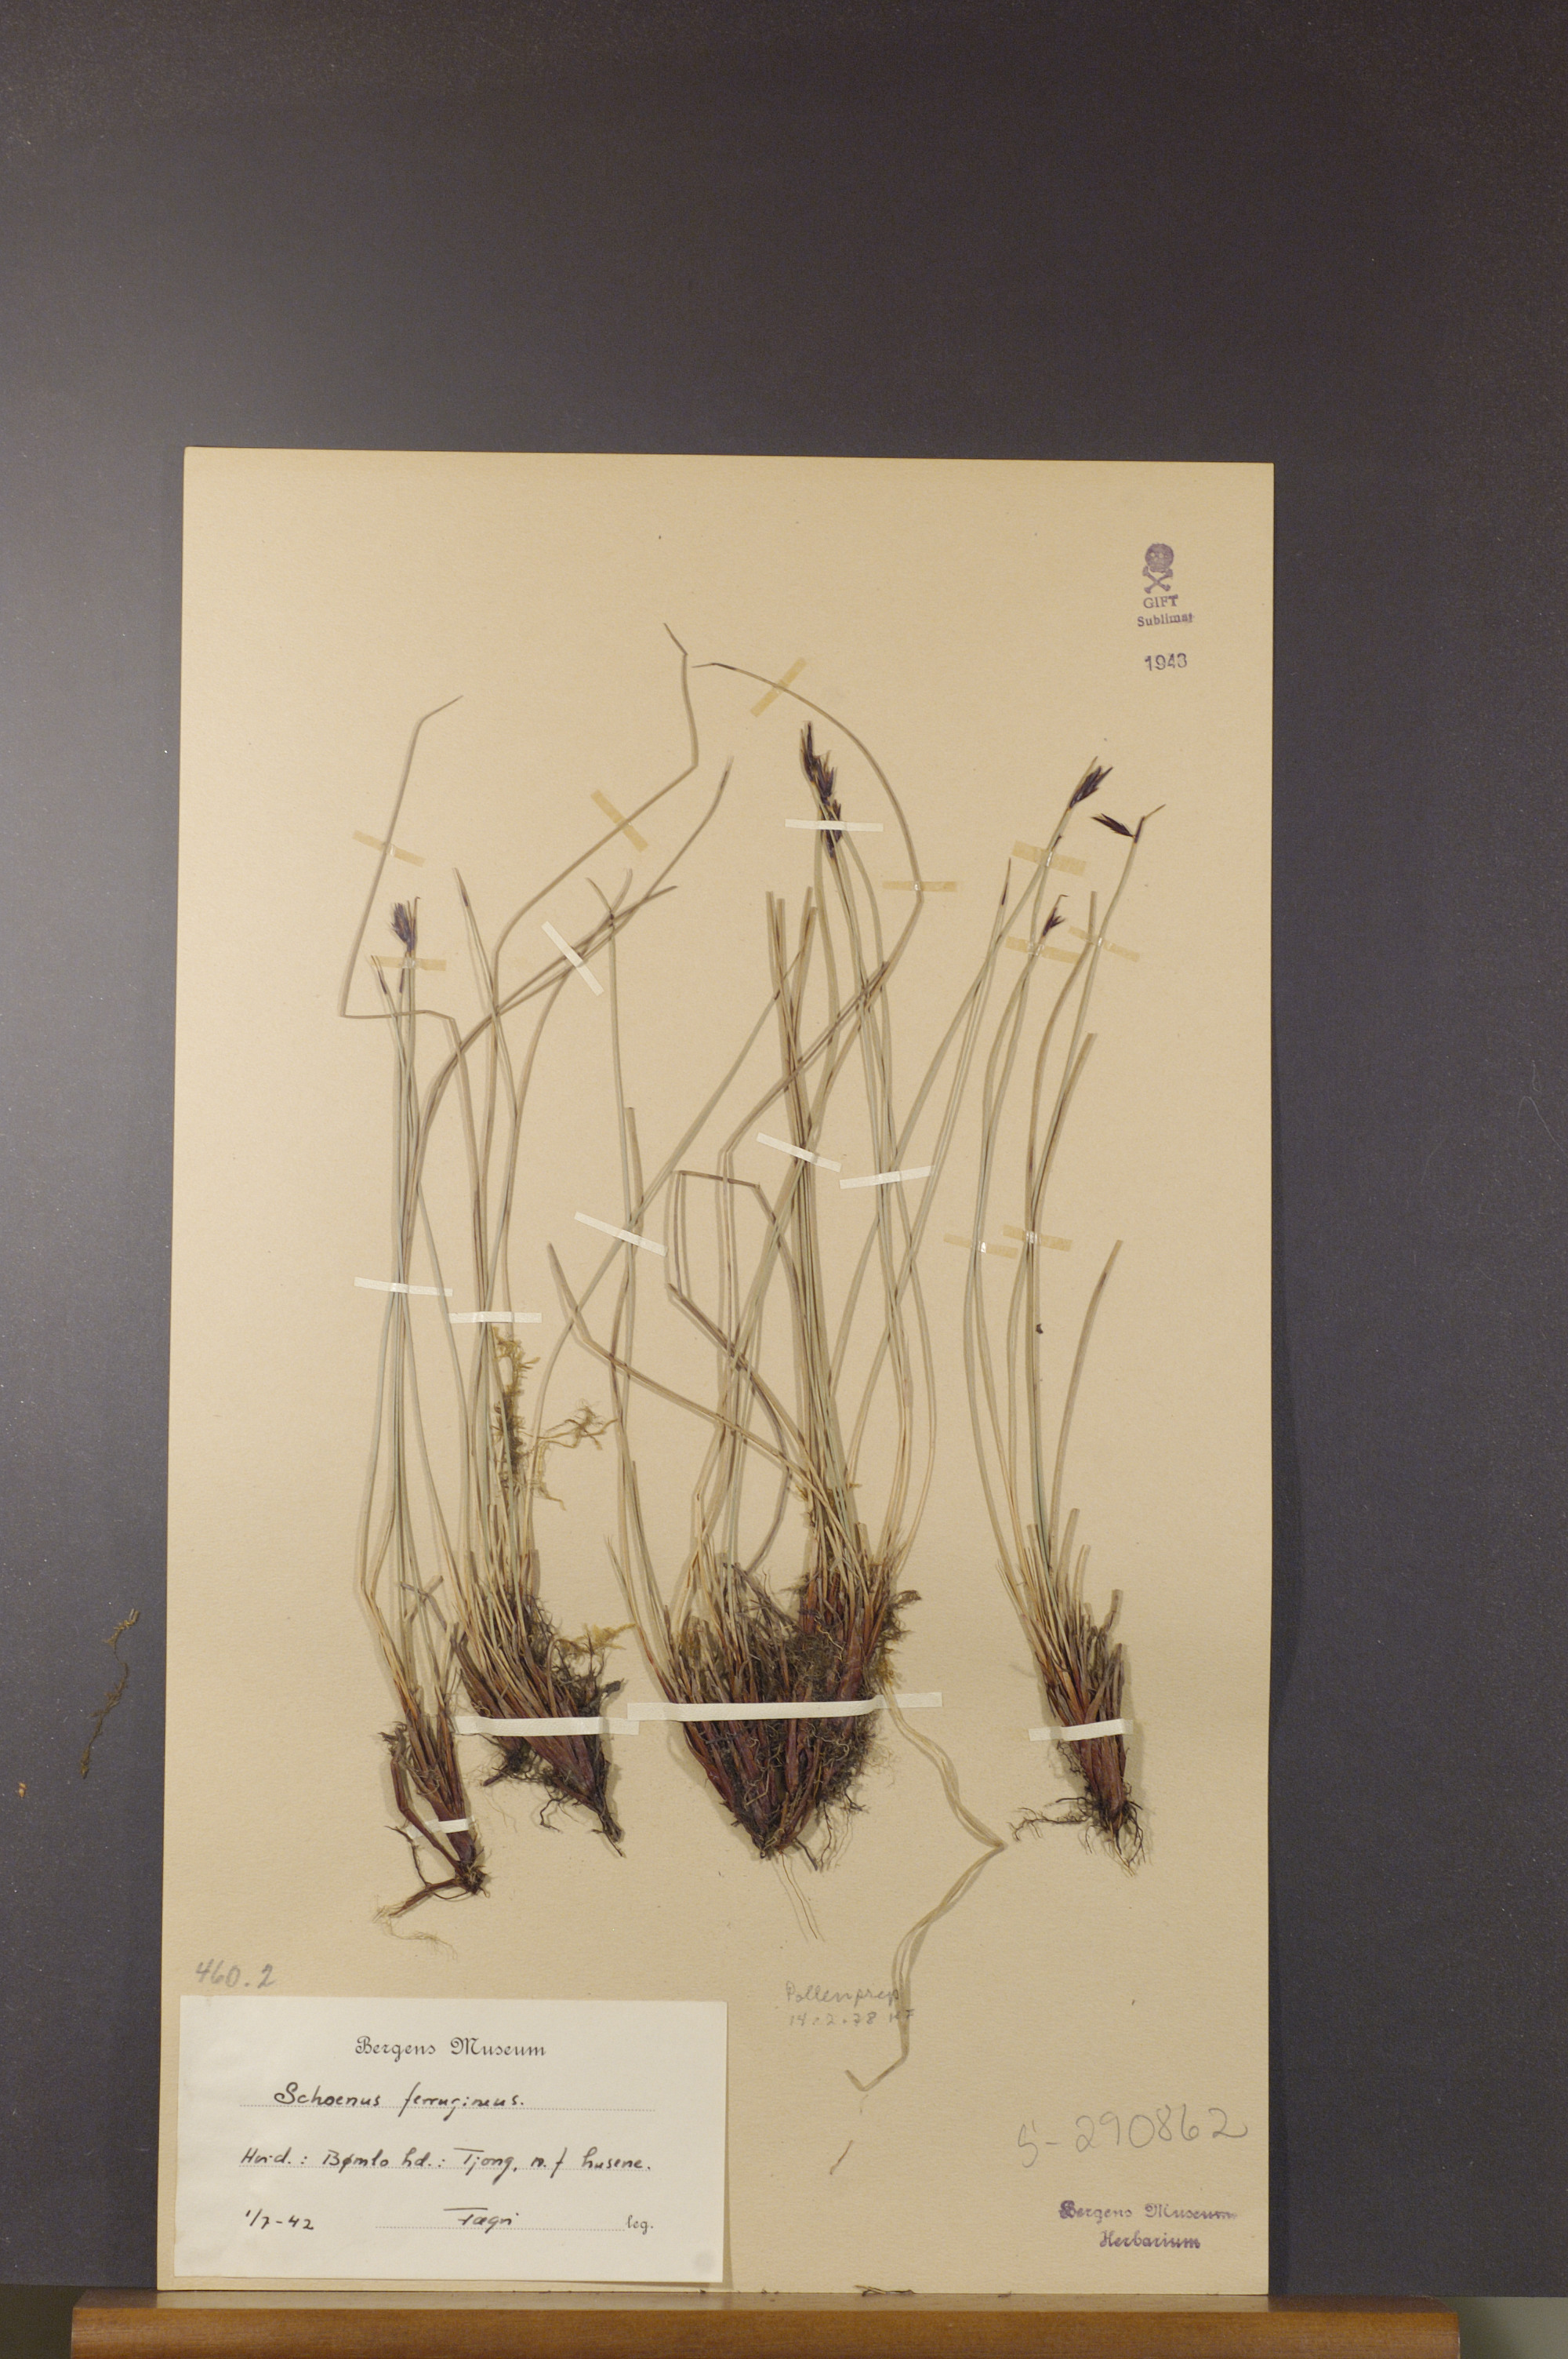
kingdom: Plantae
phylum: Tracheophyta
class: Liliopsida
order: Poales
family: Cyperaceae
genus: Schoenus
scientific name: Schoenus ferrugineus
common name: Brown bog-rush
